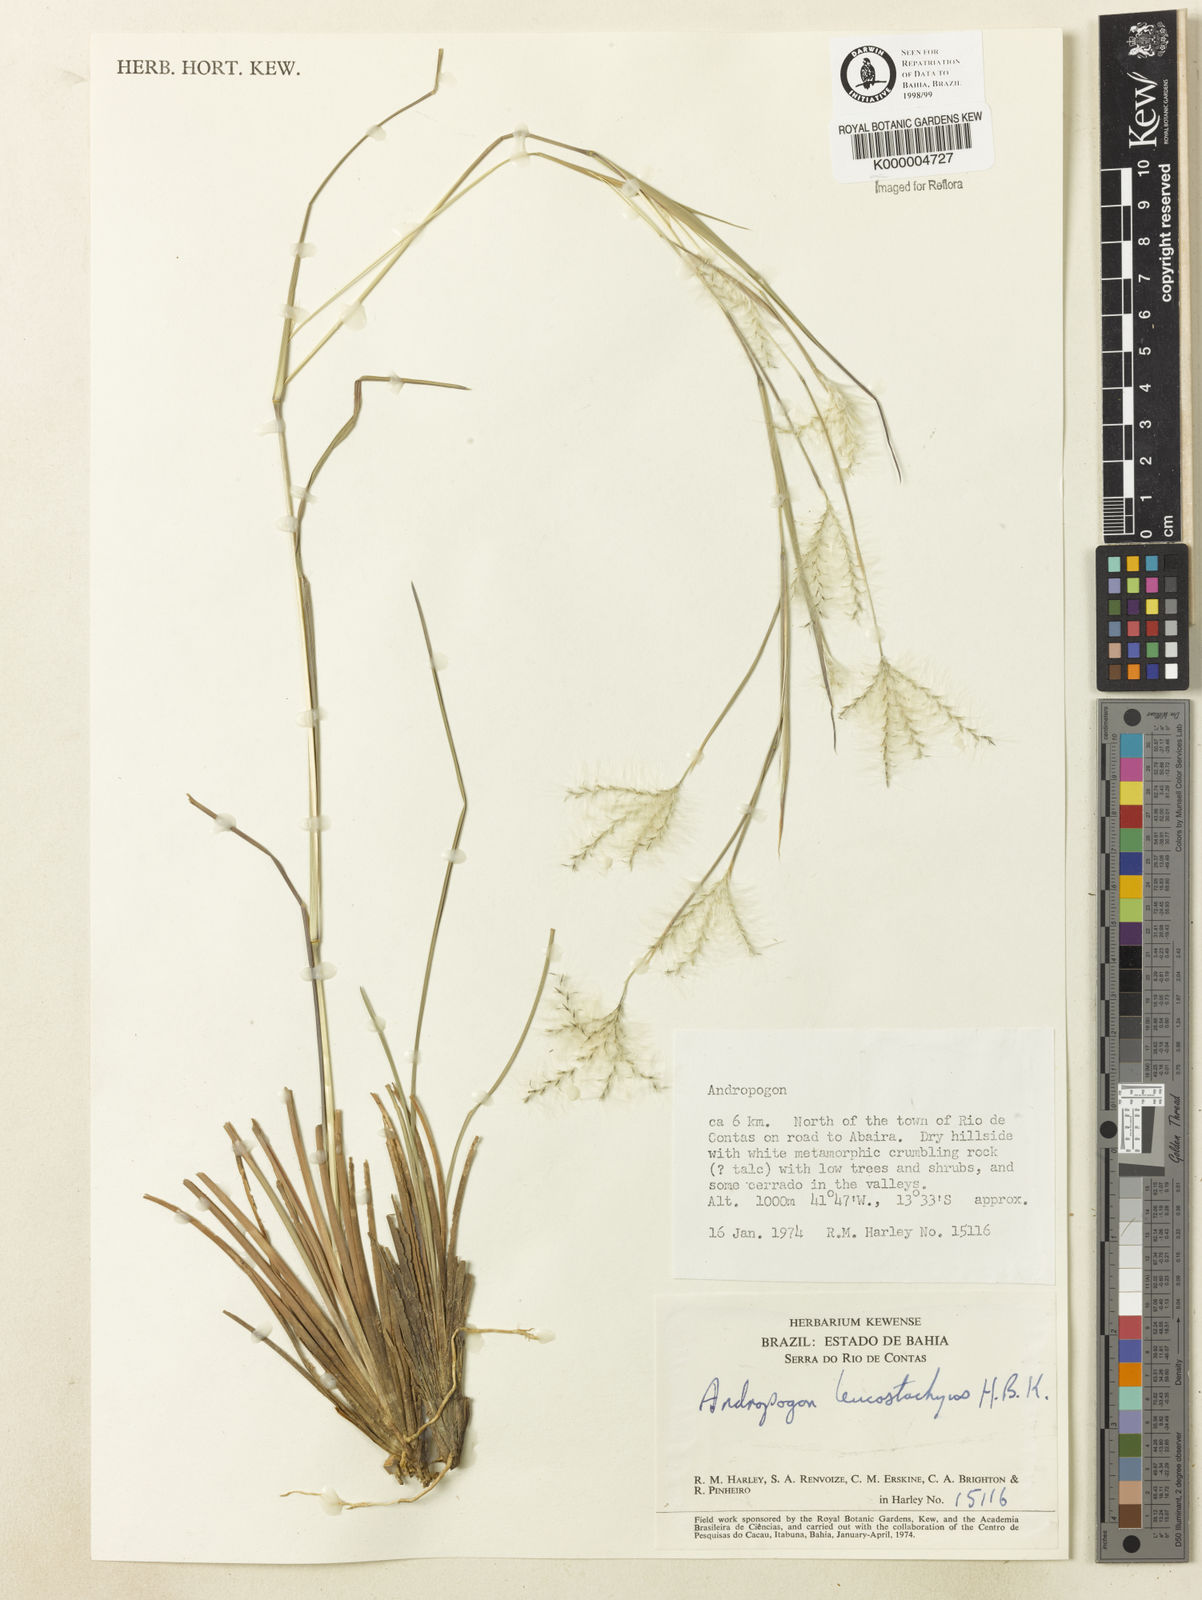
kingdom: Plantae
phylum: Tracheophyta
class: Liliopsida
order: Poales
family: Poaceae
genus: Andropogon
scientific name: Andropogon leucostachyus
